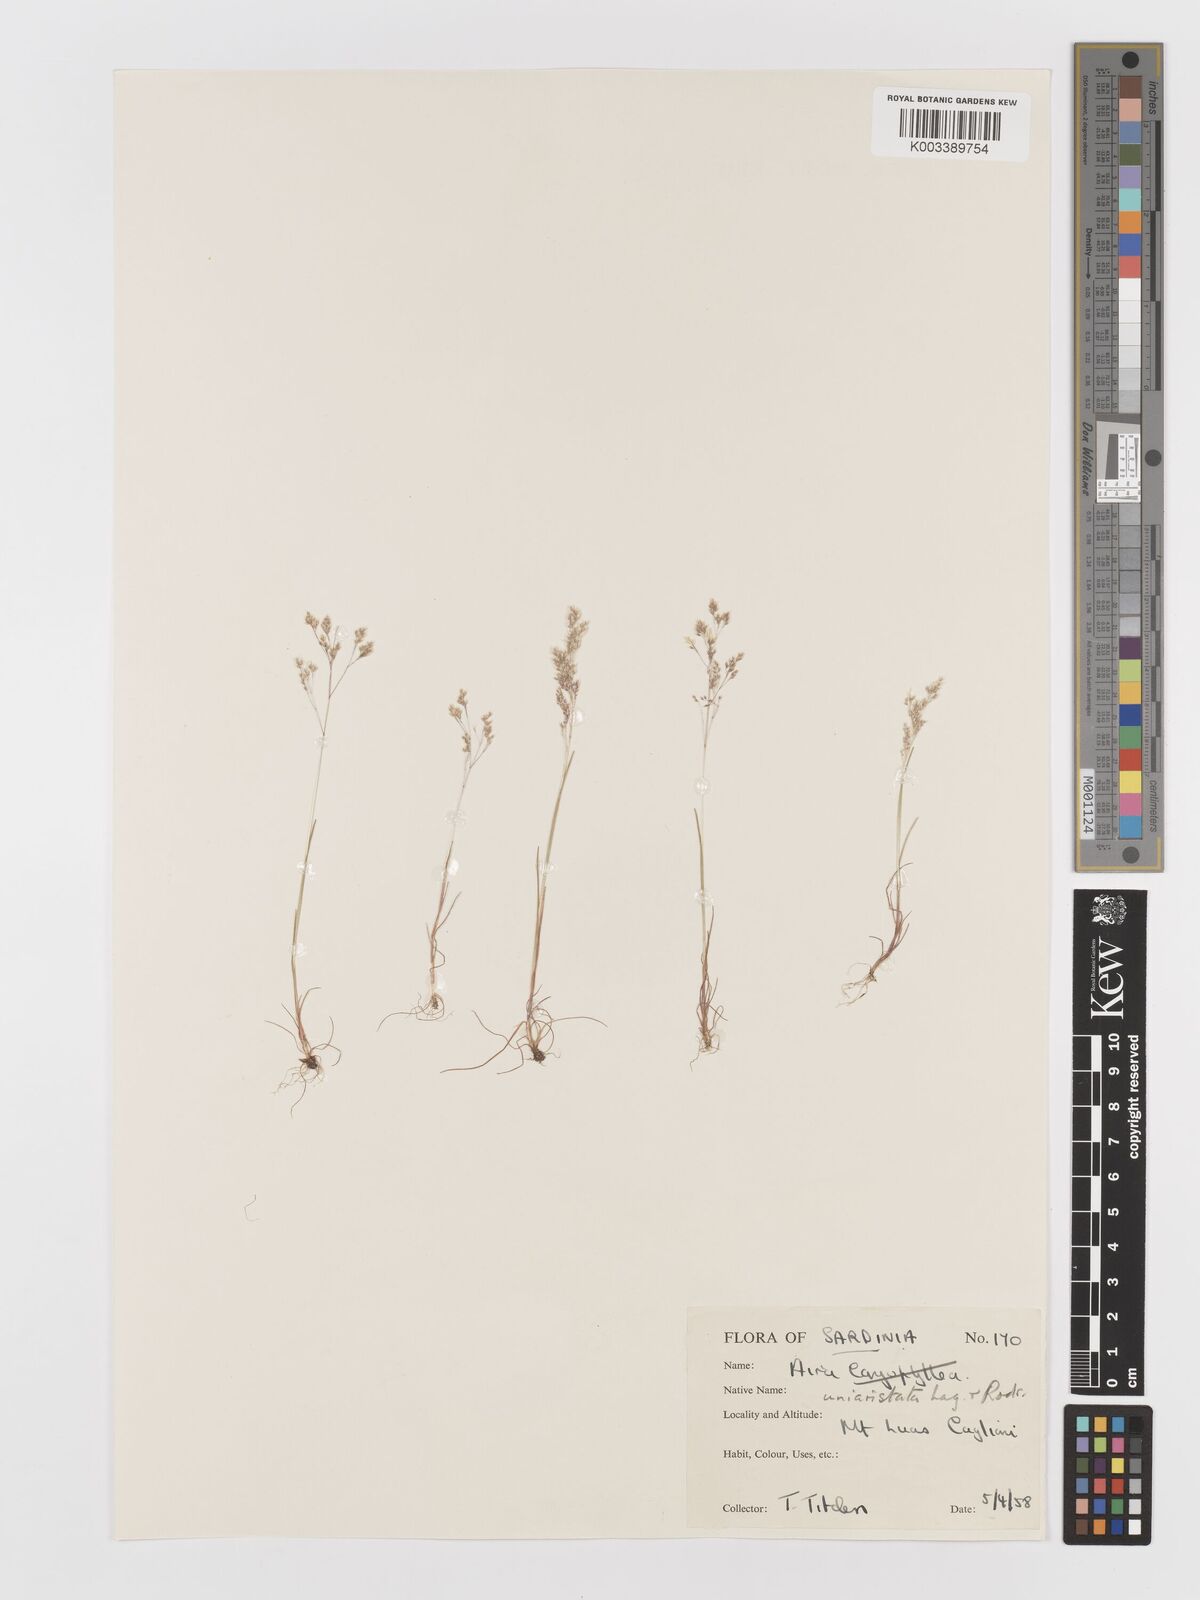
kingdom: Plantae
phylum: Tracheophyta
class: Liliopsida
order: Poales
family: Poaceae
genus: Aira
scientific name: Aira cupaniana
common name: Silver hairgrass
